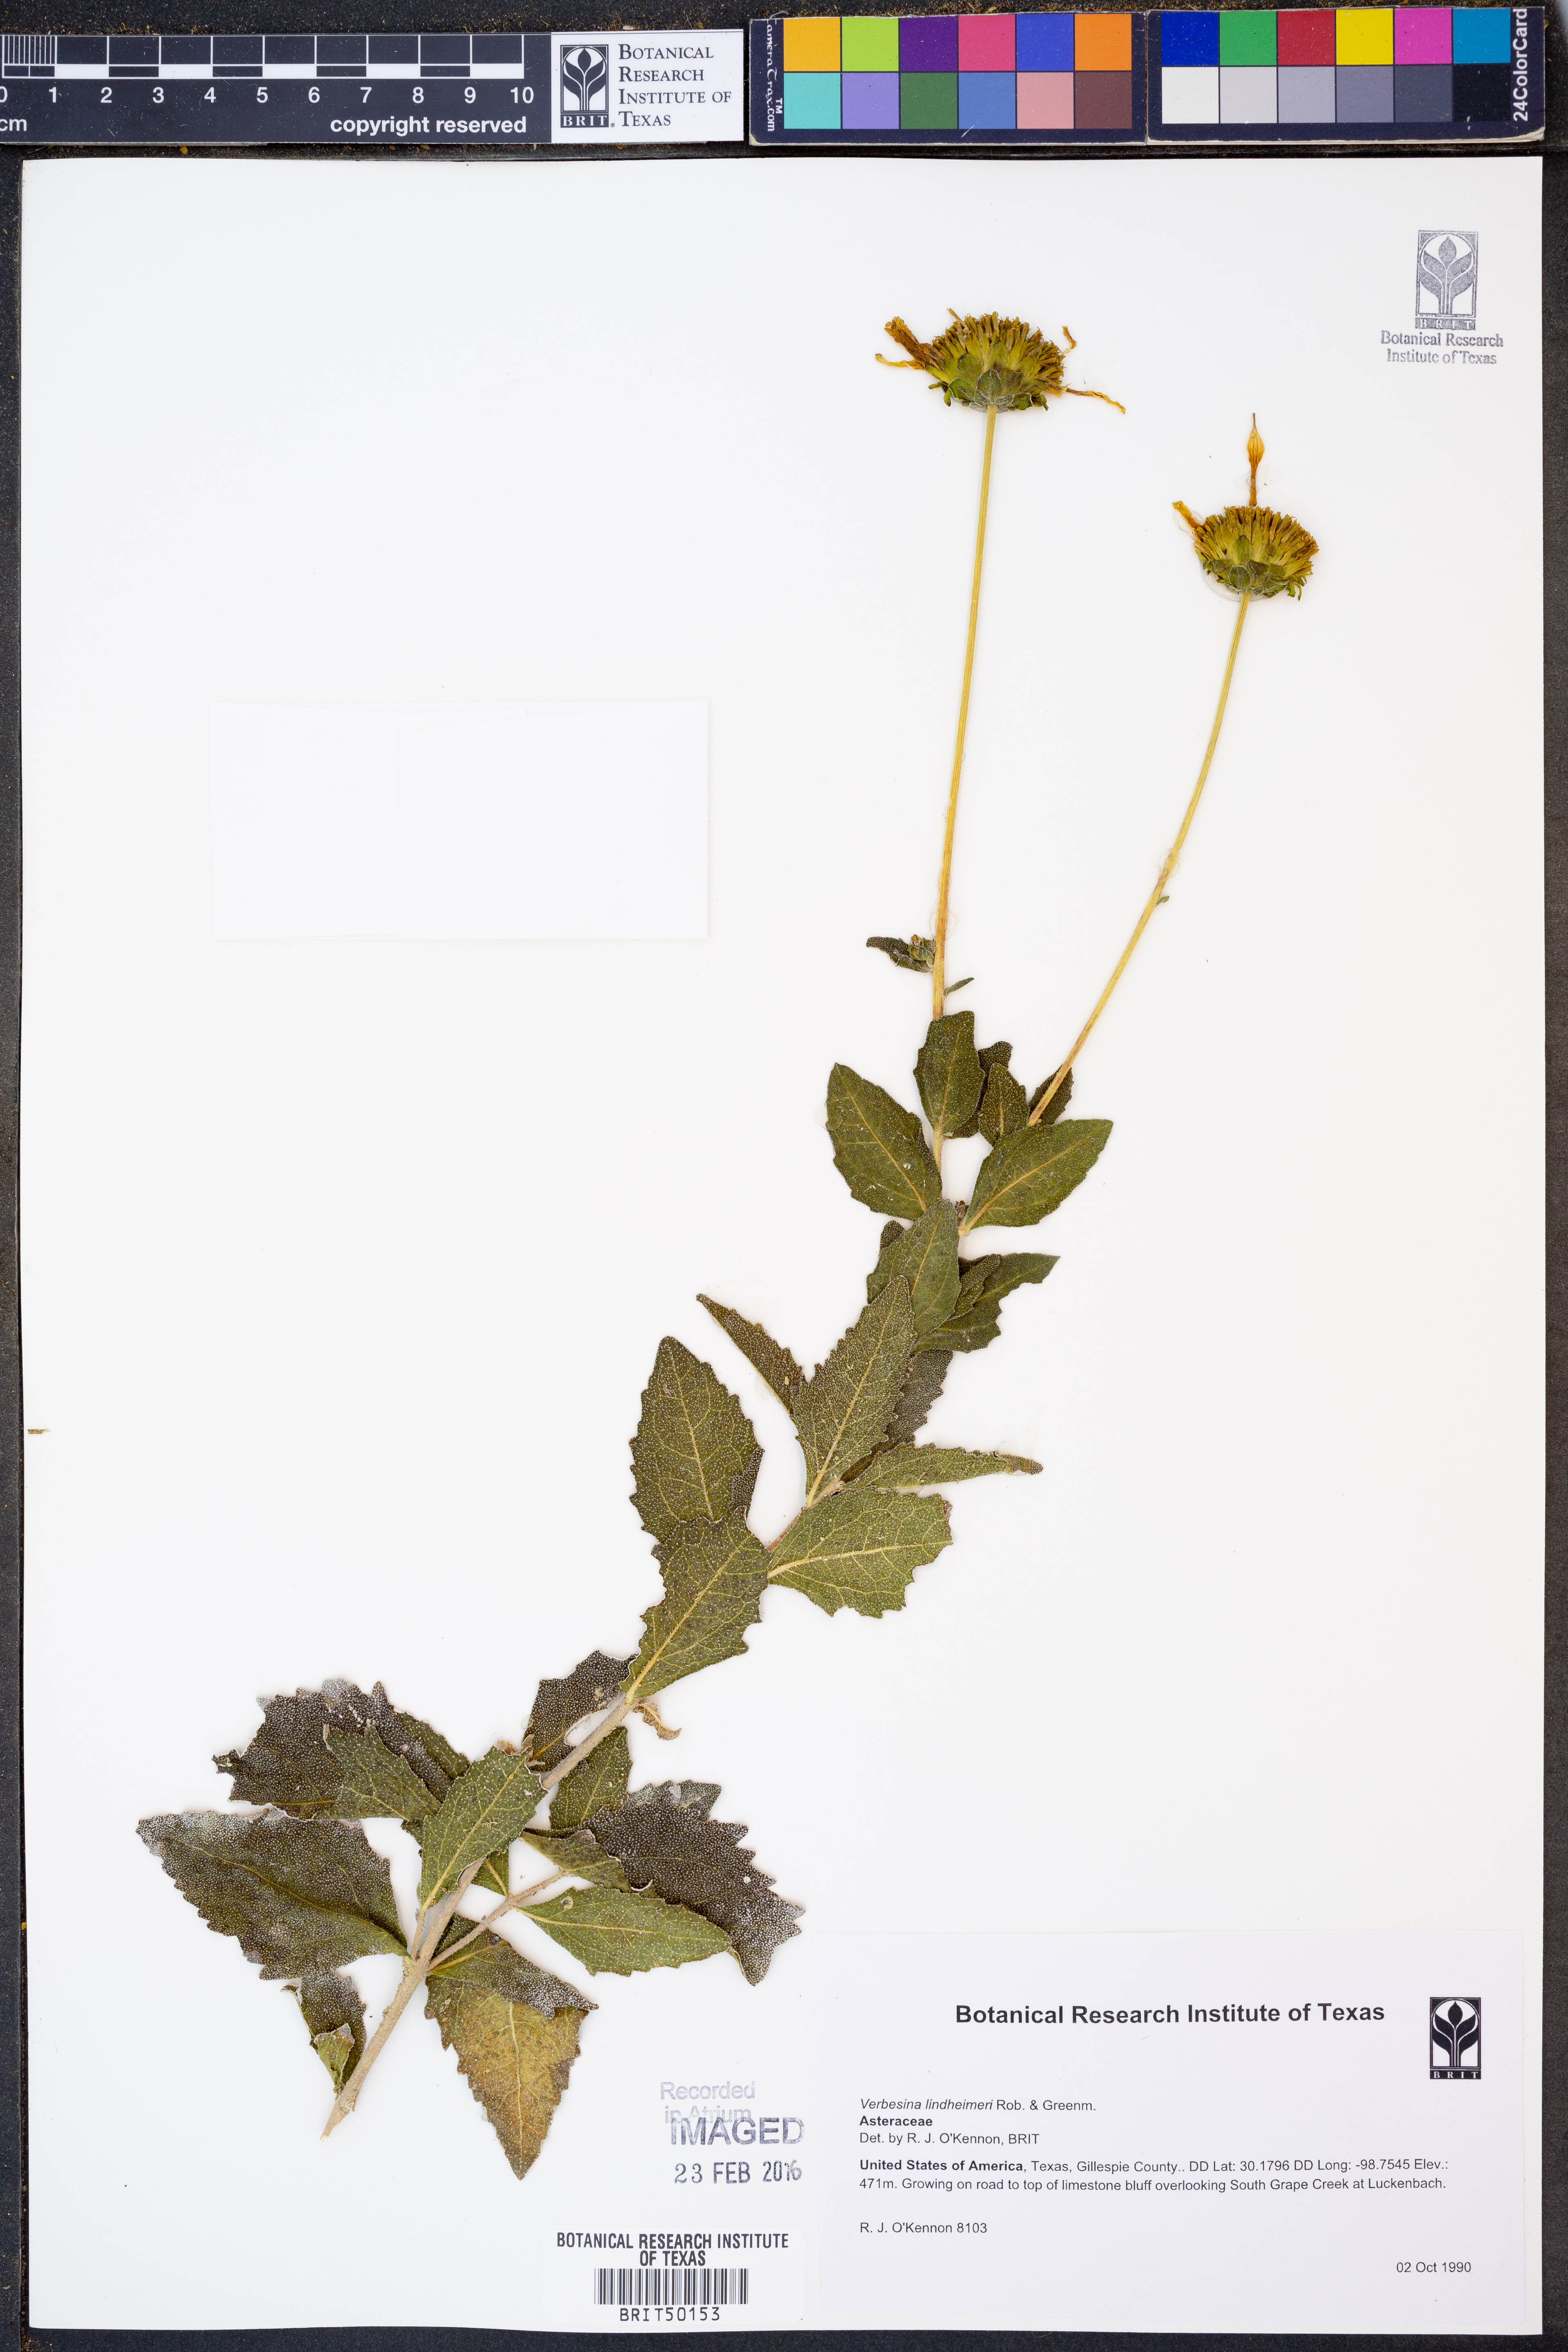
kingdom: Plantae
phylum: Tracheophyta
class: Magnoliopsida
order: Asterales
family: Asteraceae
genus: Verbesina
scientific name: Verbesina lindheimeri
